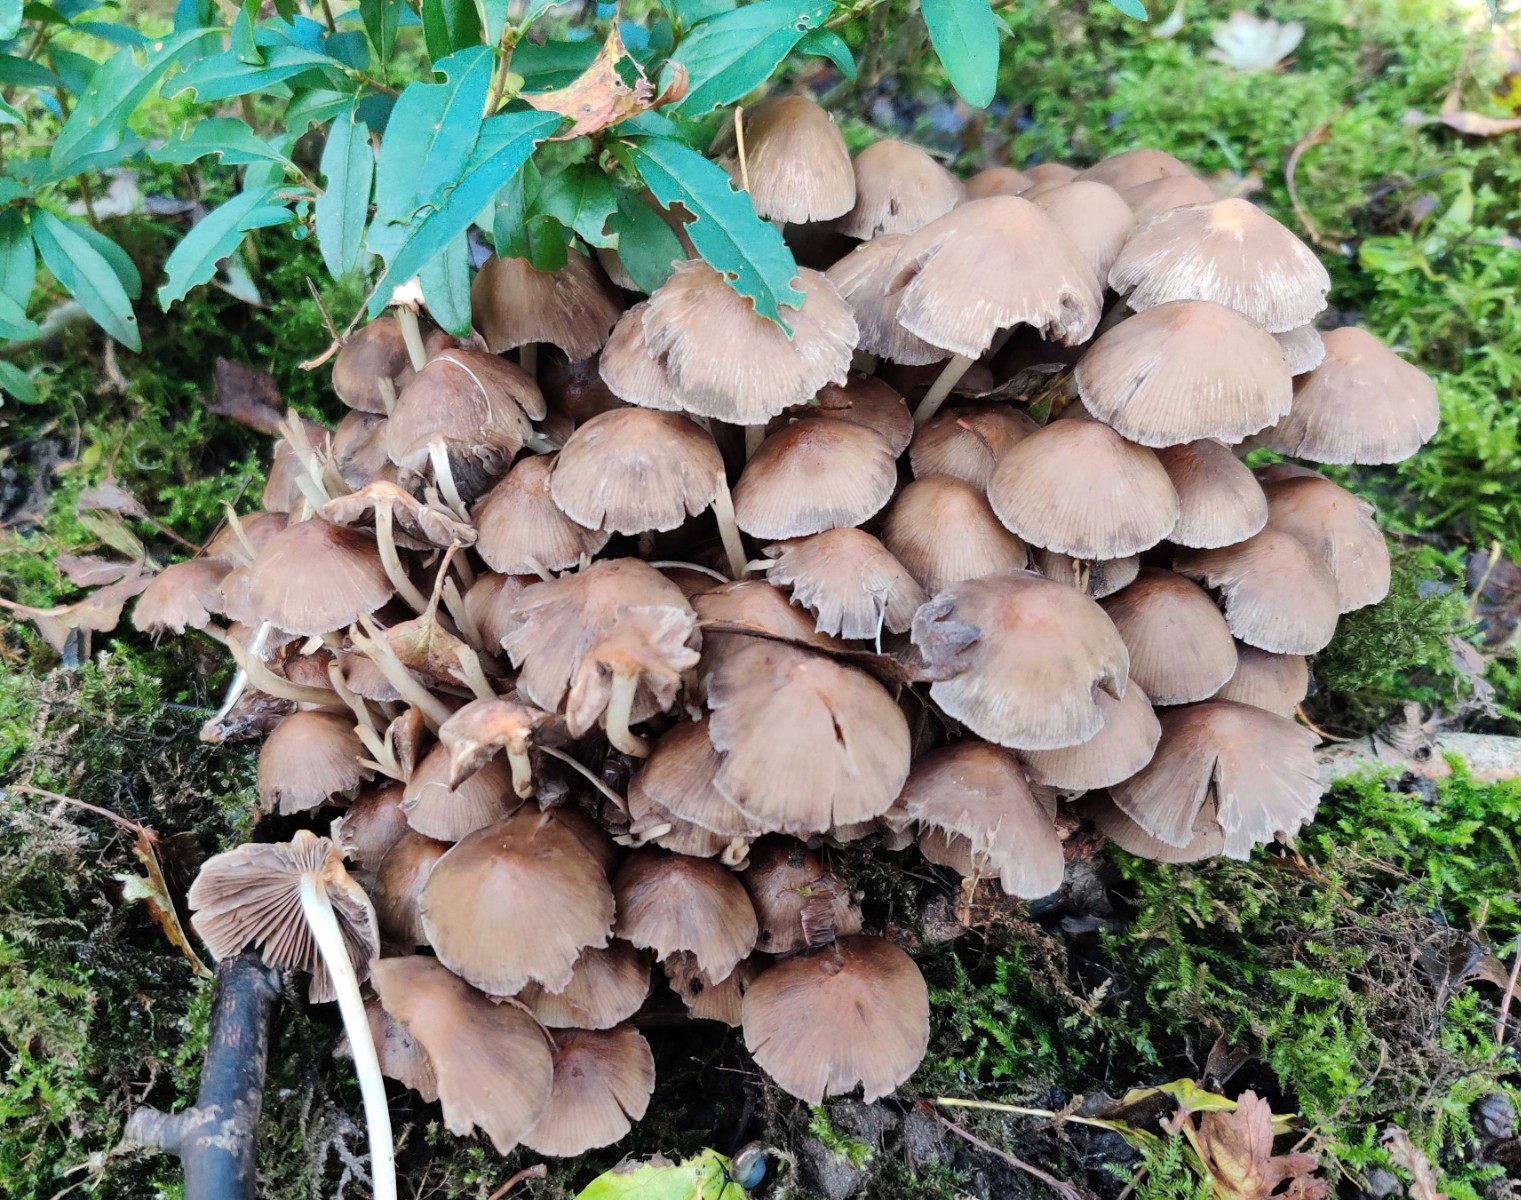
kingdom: Fungi
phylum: Basidiomycota
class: Agaricomycetes
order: Agaricales
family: Psathyrellaceae
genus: Britzelmayria
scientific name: Britzelmayria multipedata
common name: knippe-mørkhat
